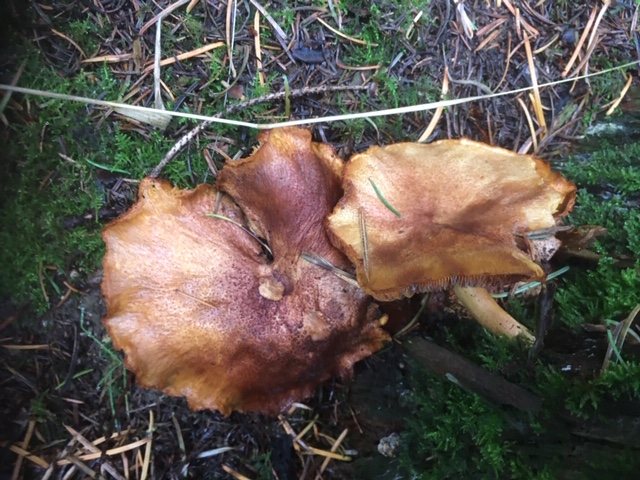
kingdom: Fungi
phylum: Basidiomycota
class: Agaricomycetes
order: Agaricales
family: Tricholomataceae
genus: Tricholomopsis
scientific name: Tricholomopsis rutilans
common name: purpur-væbnerhat
